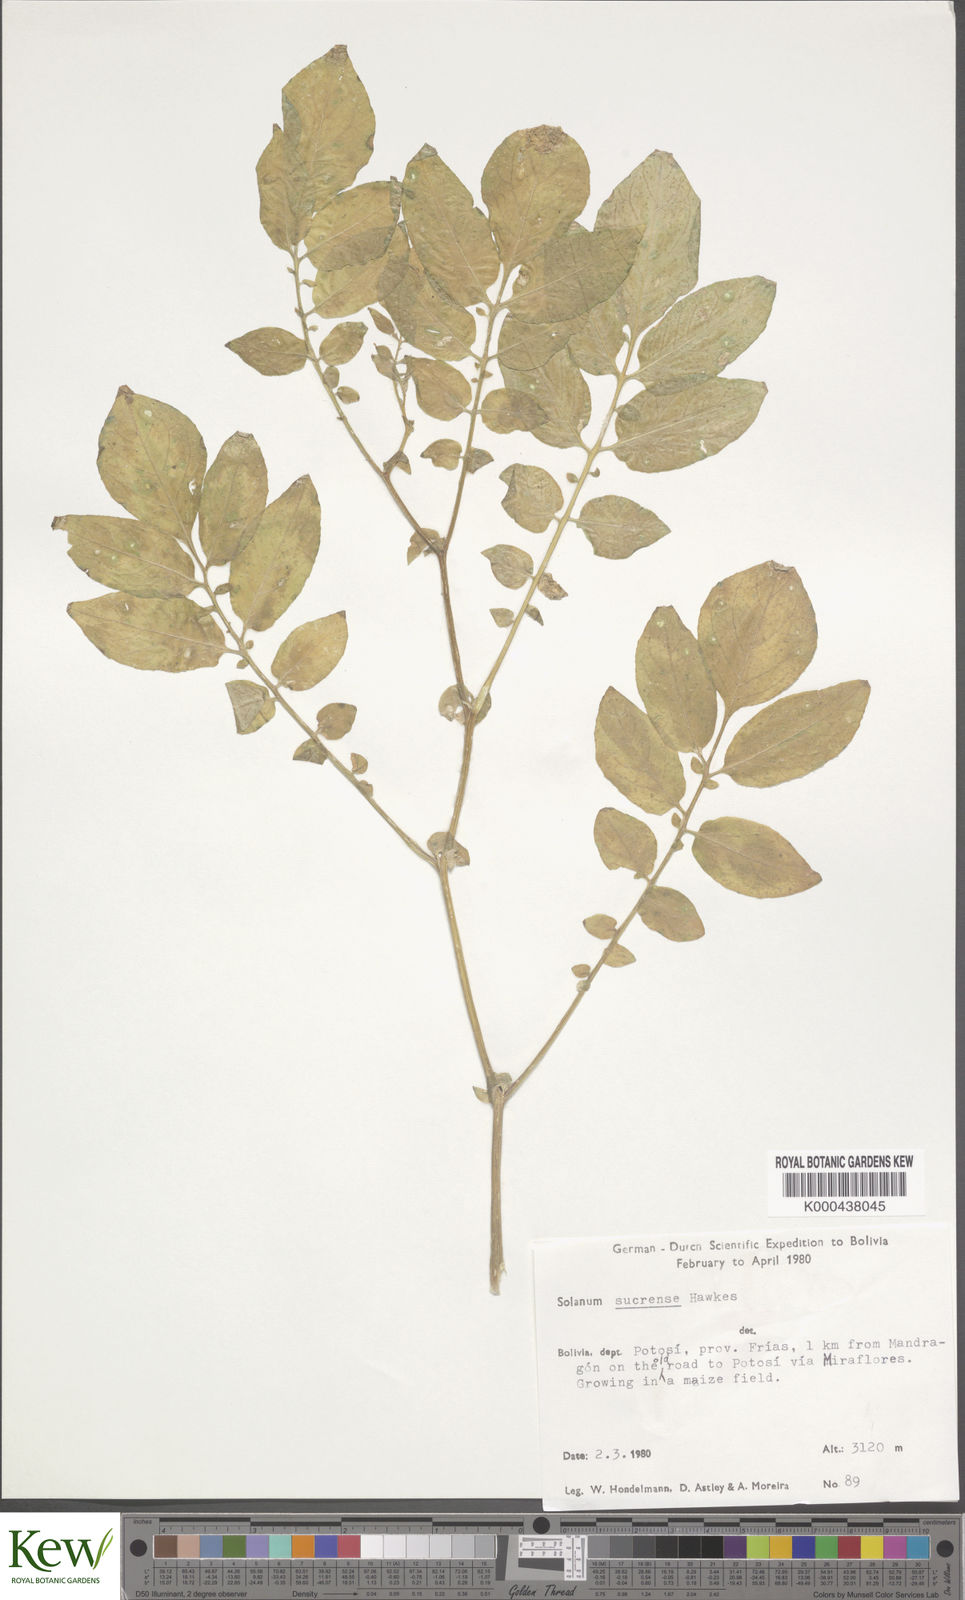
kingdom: Plantae
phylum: Tracheophyta
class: Magnoliopsida
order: Solanales
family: Solanaceae
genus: Solanum
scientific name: Solanum brevicaule
